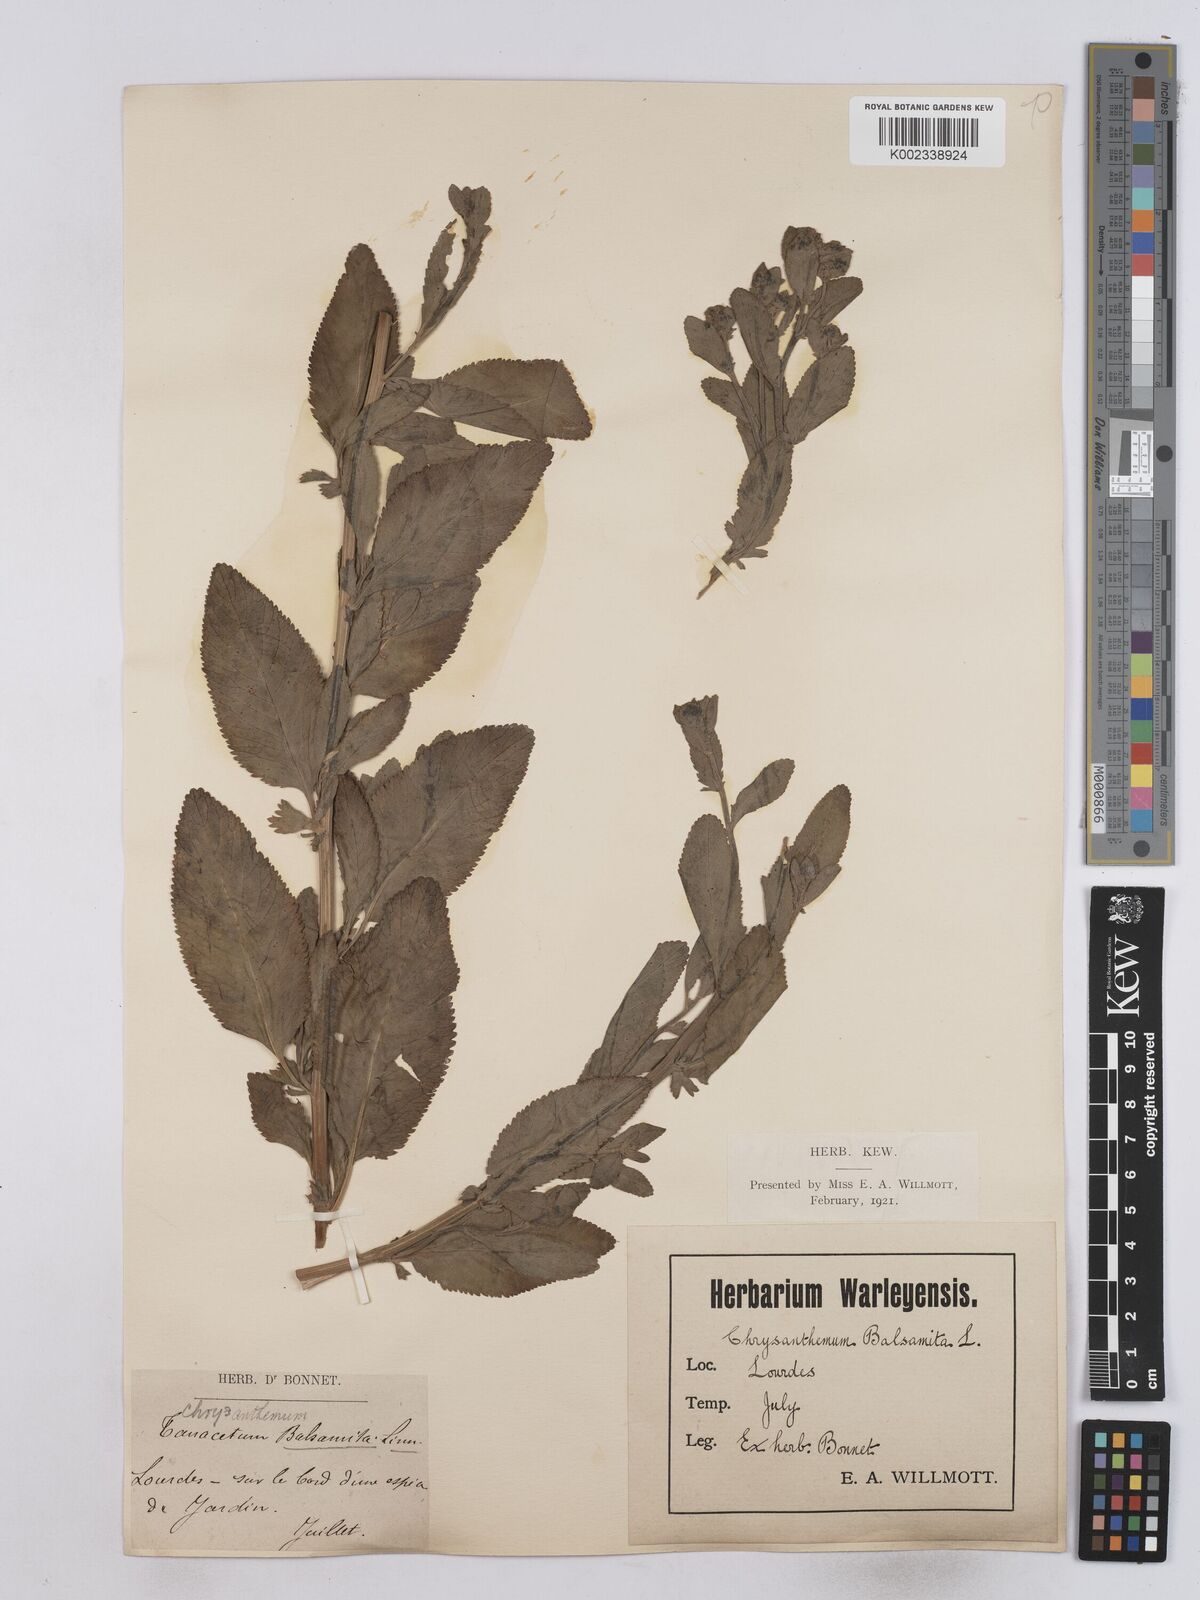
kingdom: Plantae
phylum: Tracheophyta
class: Magnoliopsida
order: Asterales
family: Asteraceae
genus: Tanacetum
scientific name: Tanacetum balsamita
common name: Costmary
